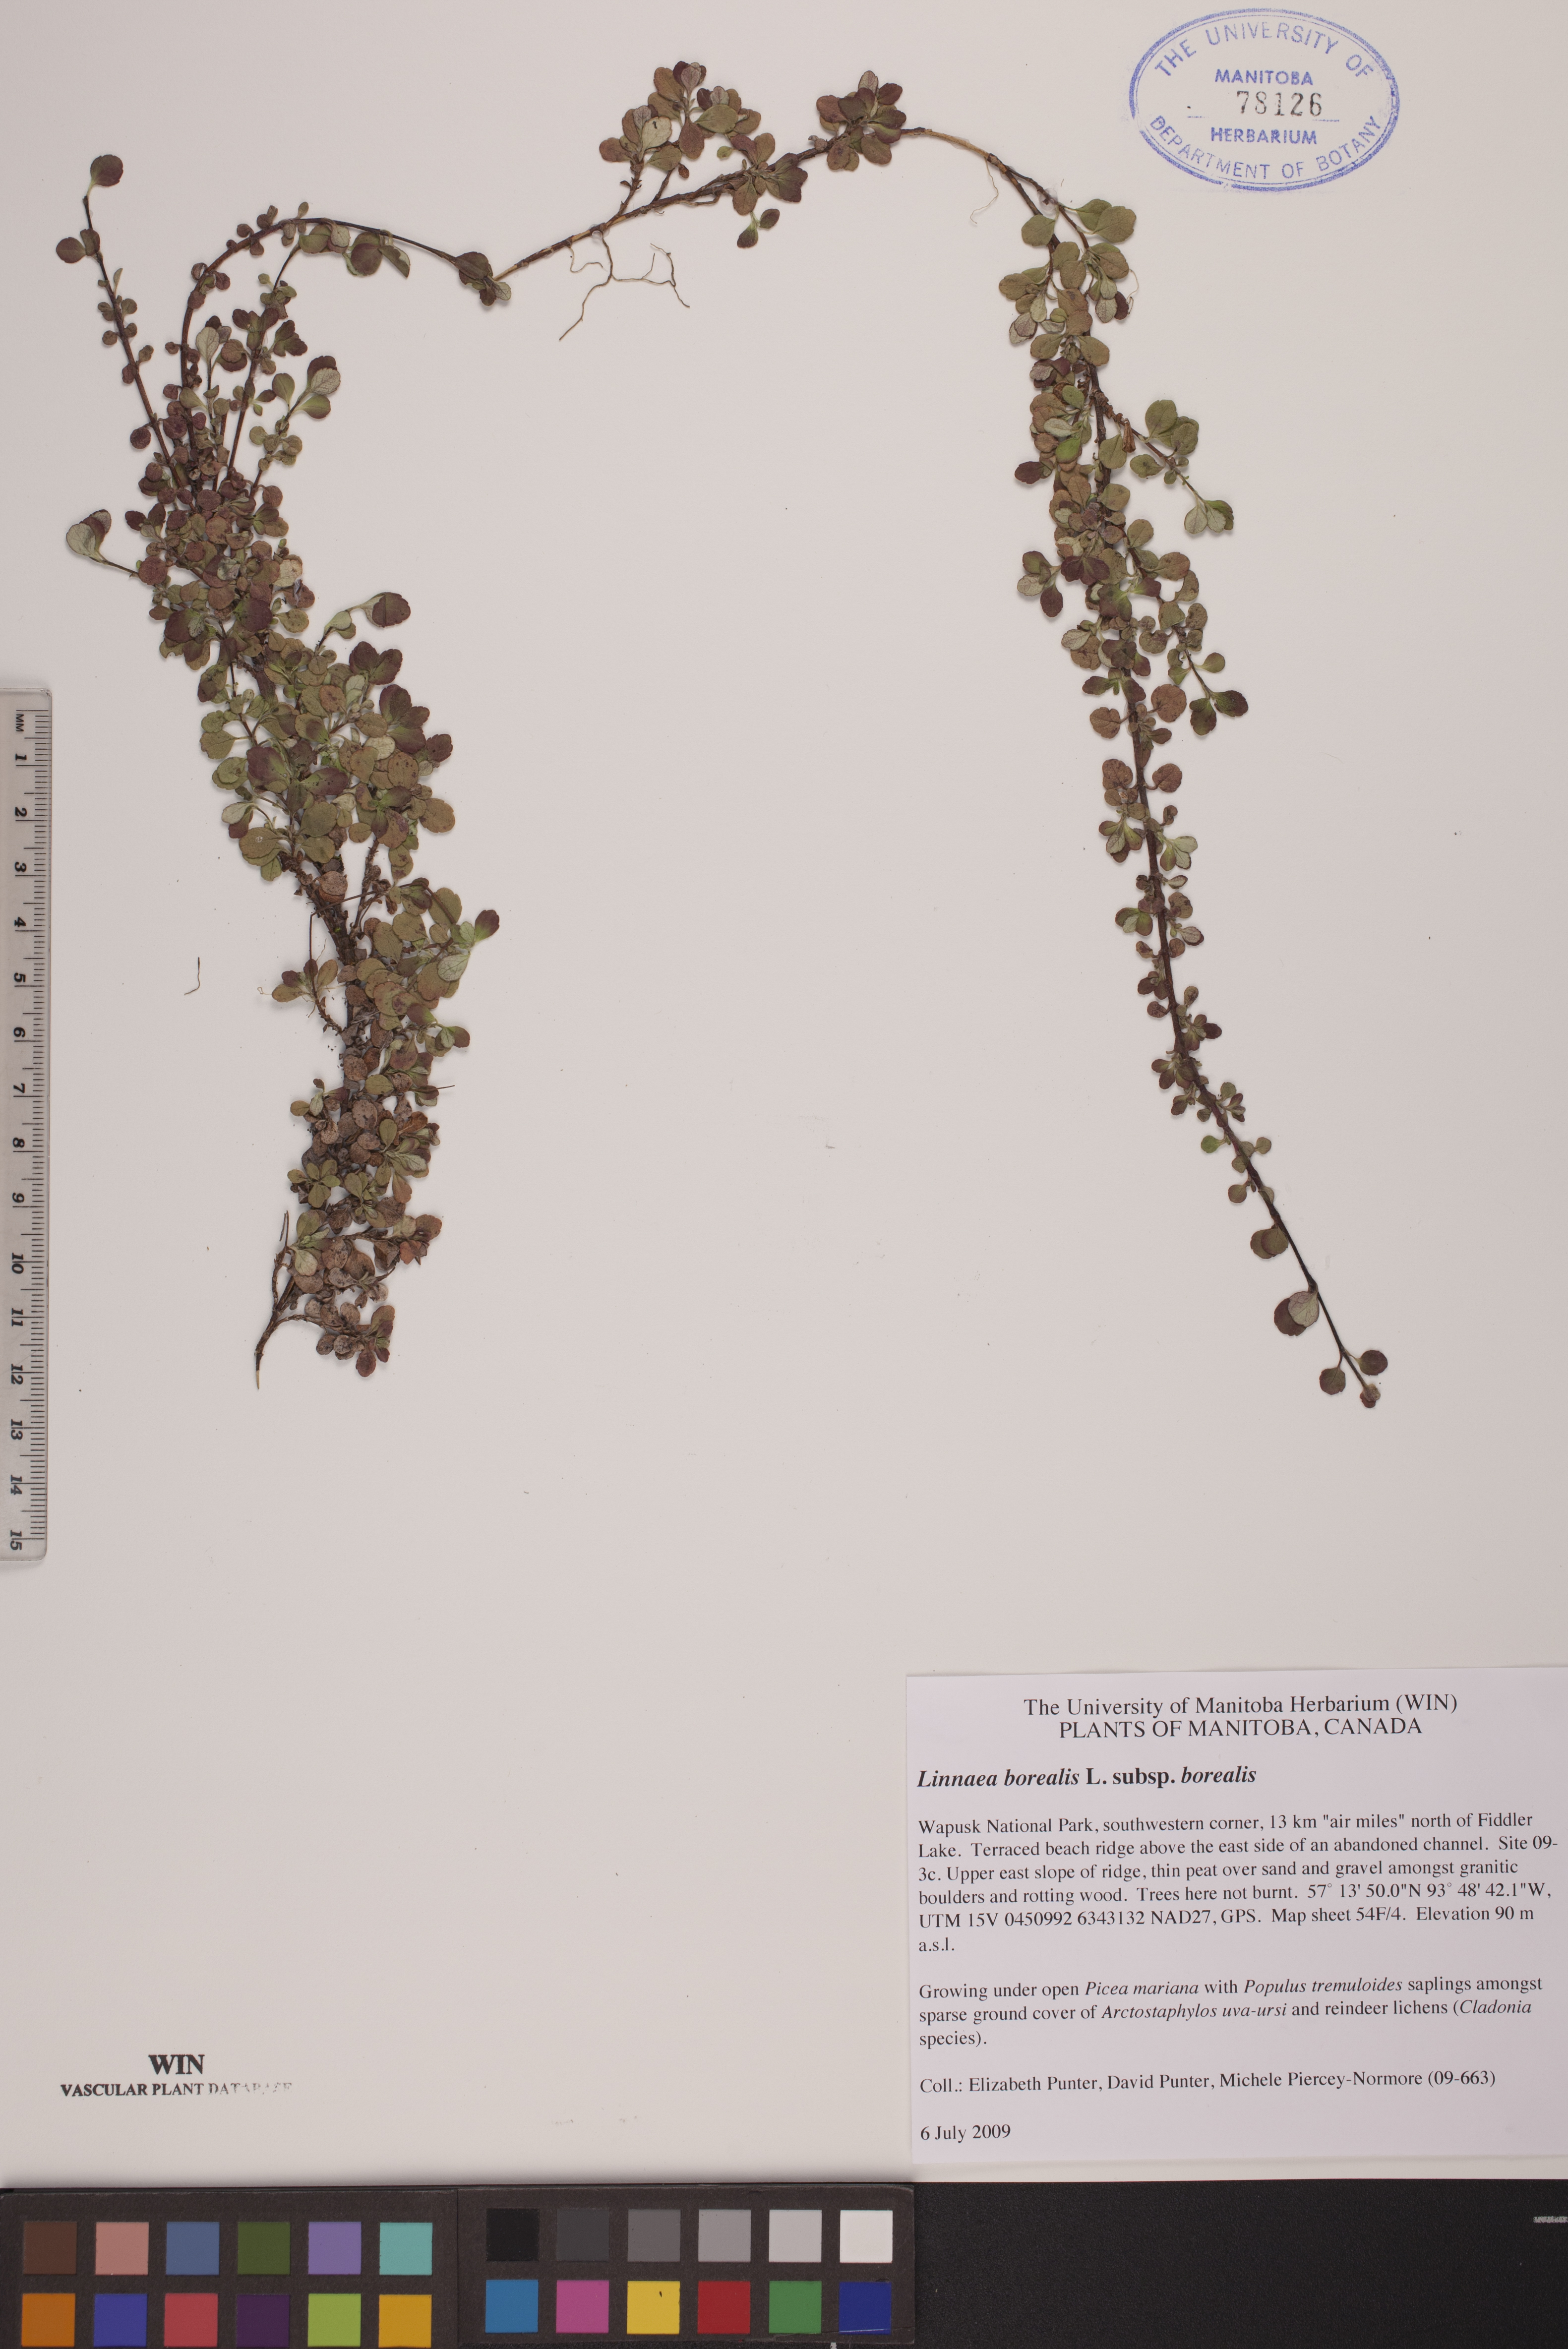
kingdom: Plantae
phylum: Tracheophyta
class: Magnoliopsida
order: Dipsacales
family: Caprifoliaceae
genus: Linnaea
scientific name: Linnaea borealis
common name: Twinflower
